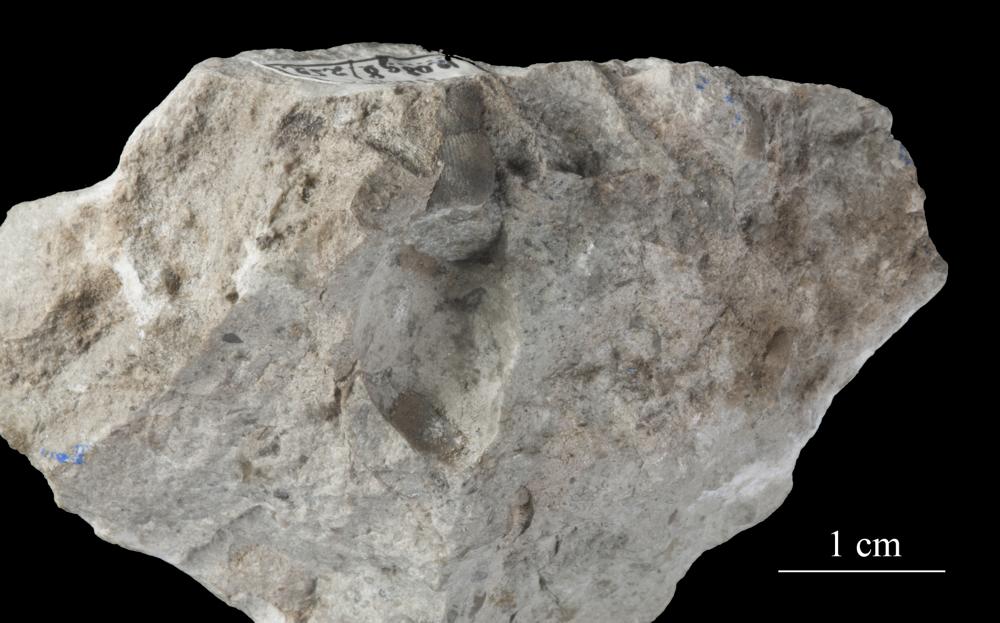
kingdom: Animalia
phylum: Mollusca
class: Gastropoda
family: Subulitidae
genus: Subulites
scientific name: Subulites priscus
